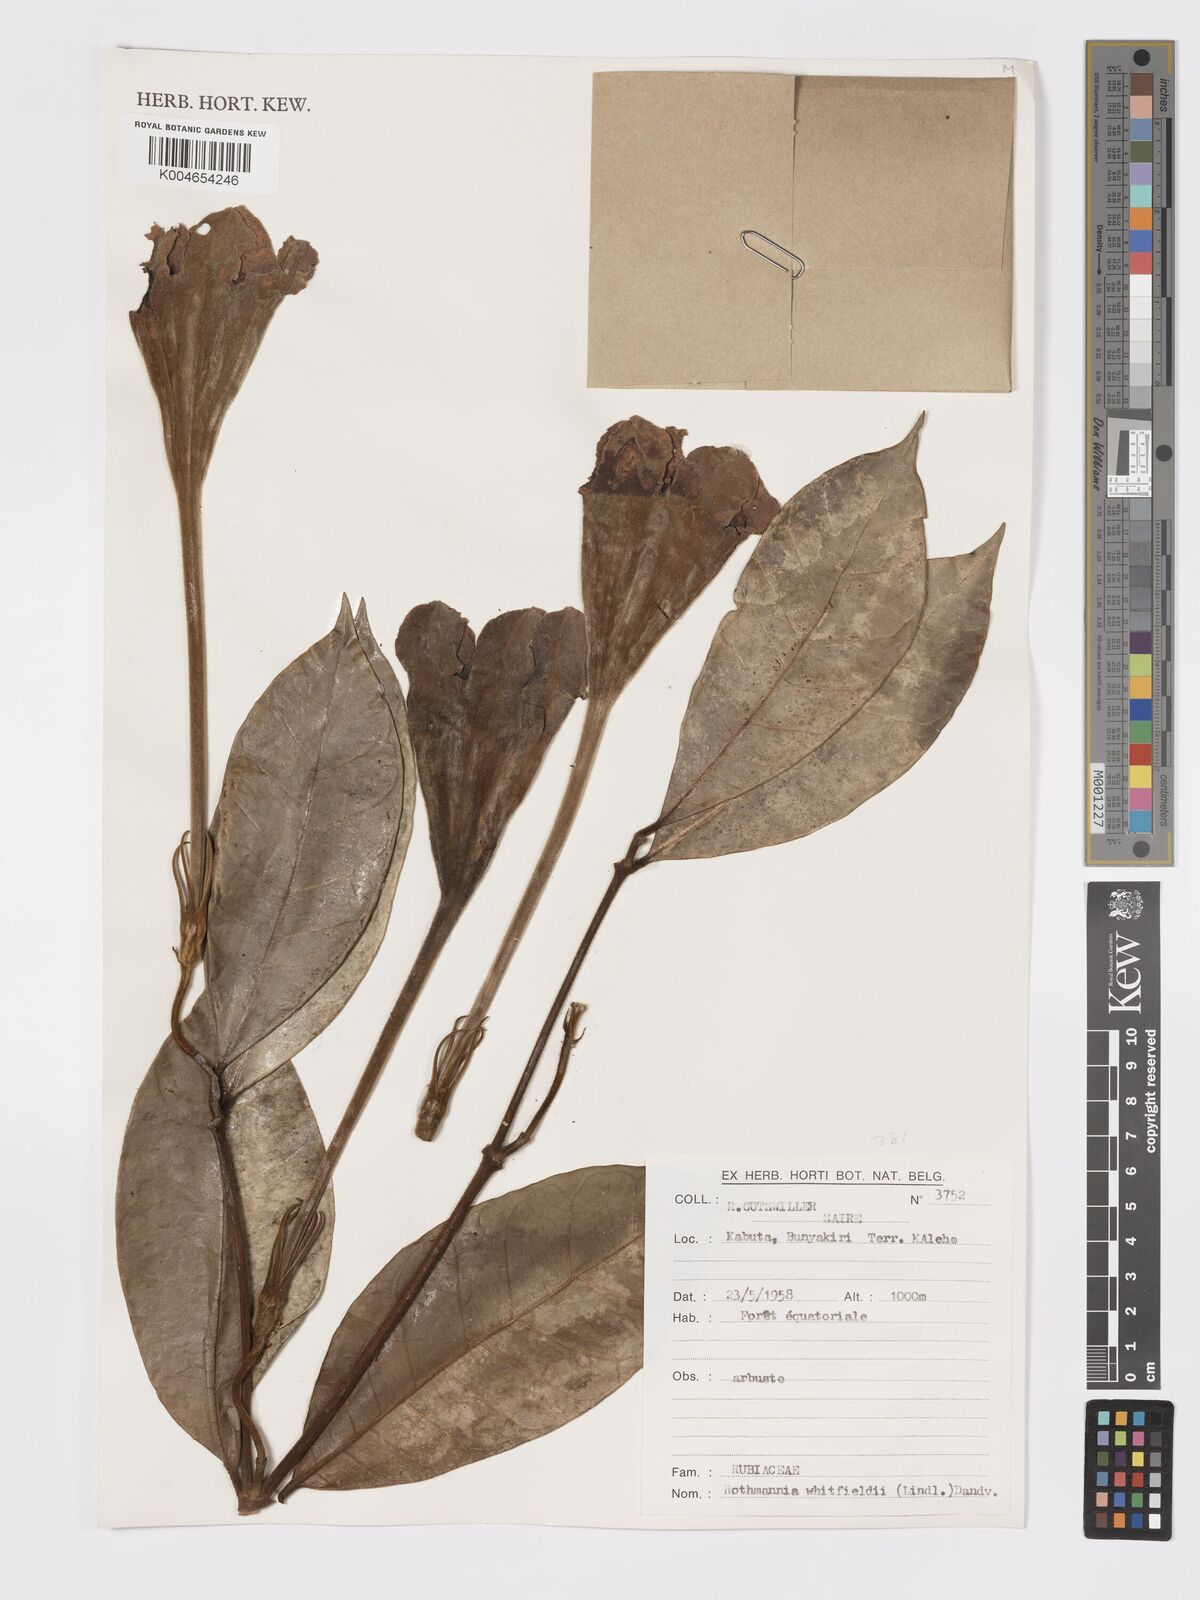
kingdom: Plantae
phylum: Tracheophyta
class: Magnoliopsida
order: Gentianales
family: Rubiaceae
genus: Rothmannia
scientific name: Rothmannia whitfieldii
